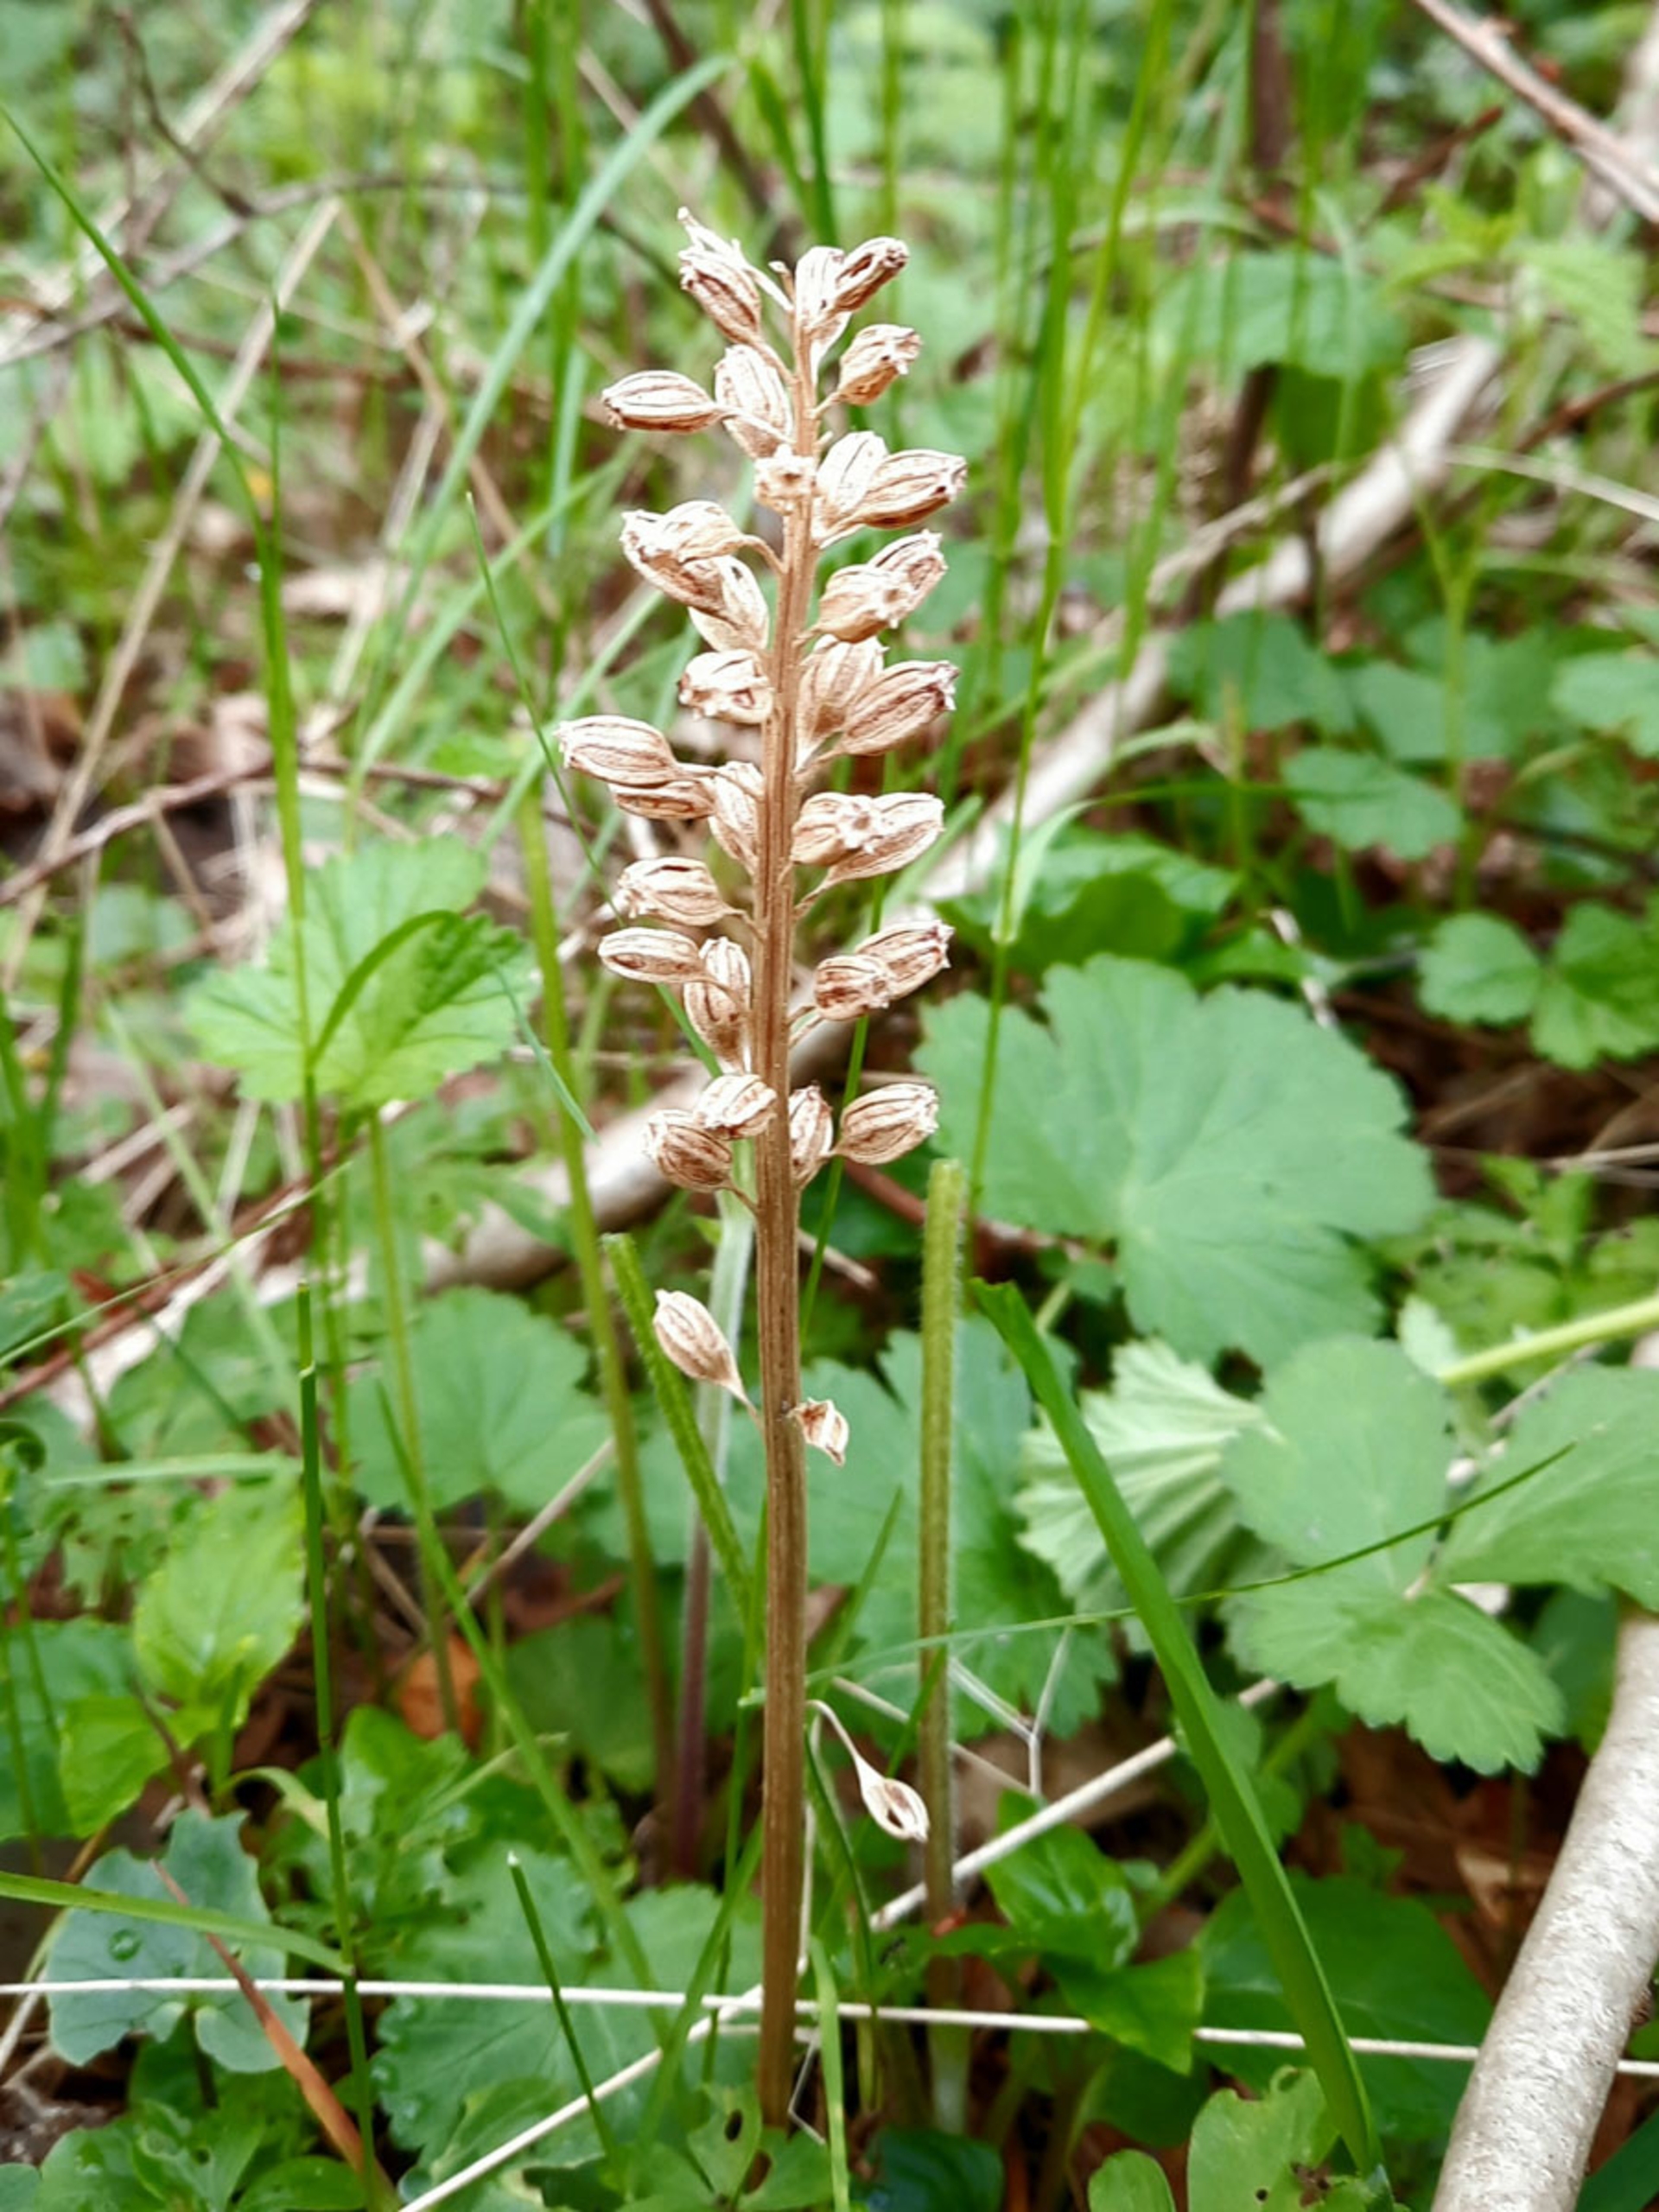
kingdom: Plantae
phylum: Tracheophyta
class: Liliopsida
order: Asparagales
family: Orchidaceae
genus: Neottia
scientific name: Neottia nidus-avis
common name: Rederod
